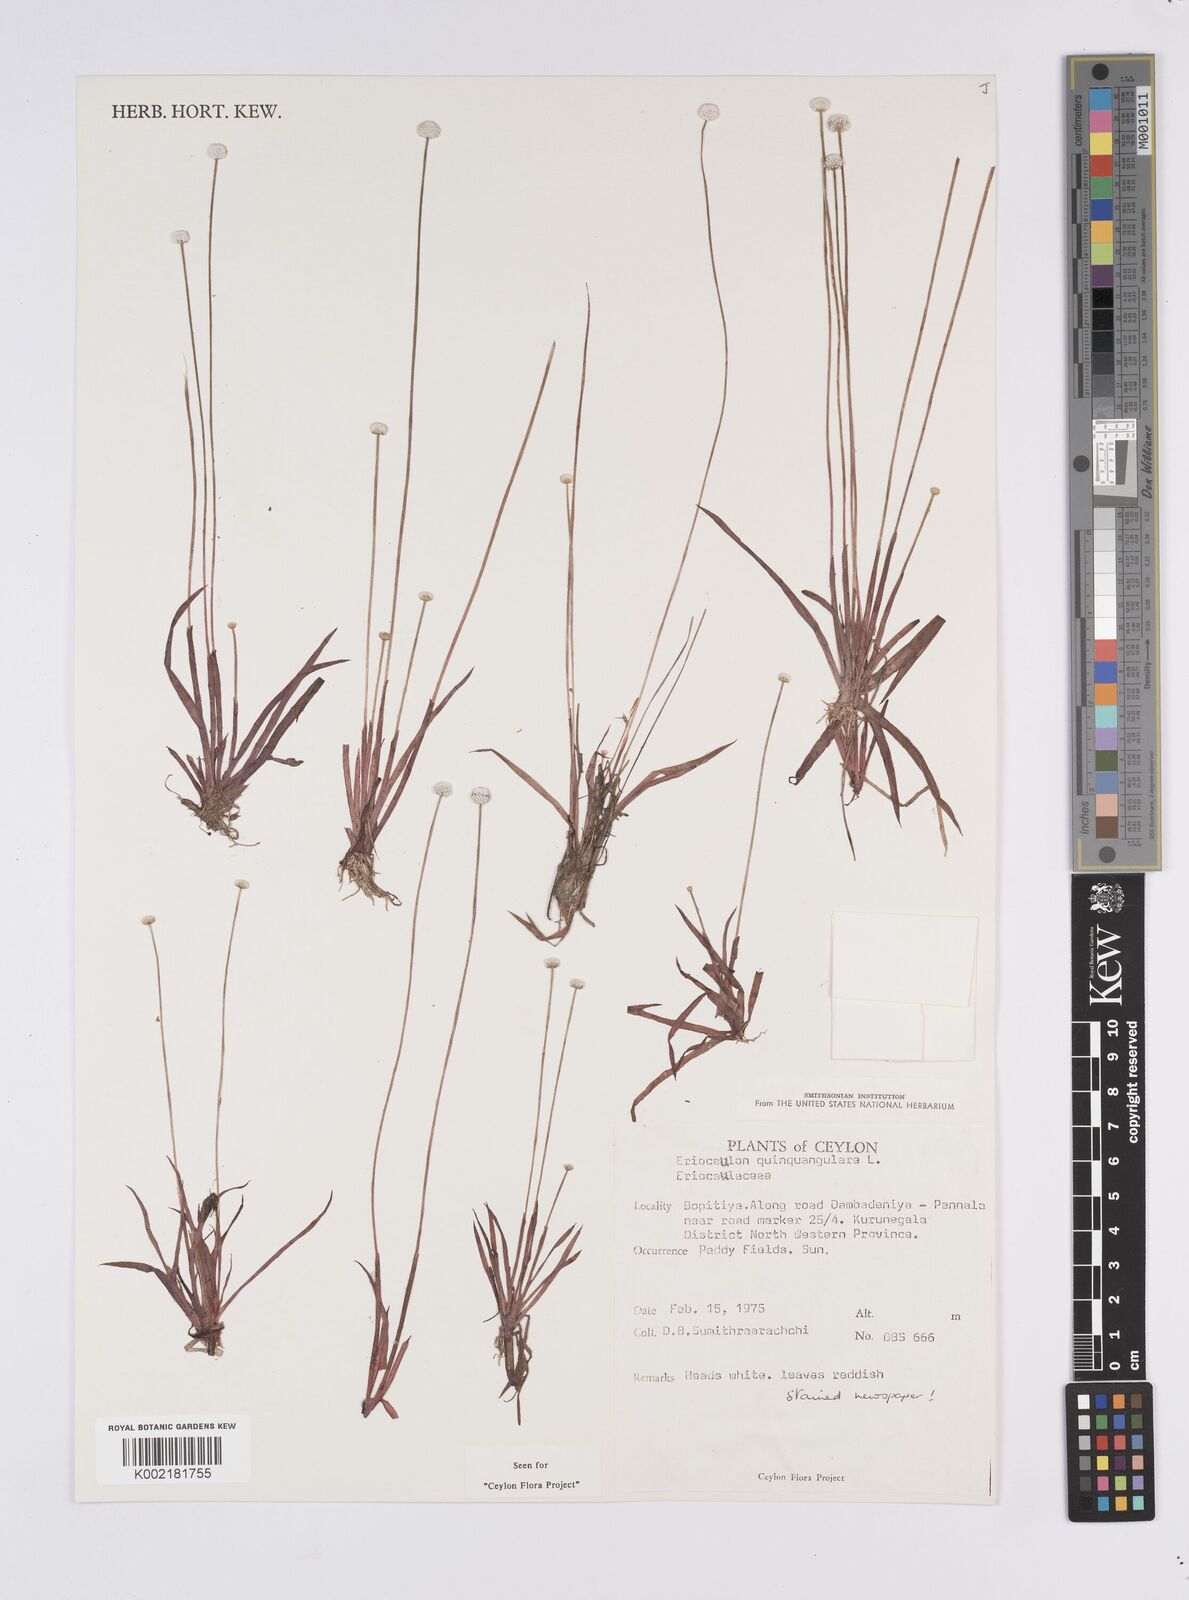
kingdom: Plantae
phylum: Tracheophyta
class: Liliopsida
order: Poales
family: Eriocaulaceae
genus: Eriocaulon
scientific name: Eriocaulon quinquangulare
